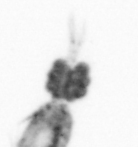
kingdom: Animalia
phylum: Arthropoda
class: Copepoda
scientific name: Copepoda
